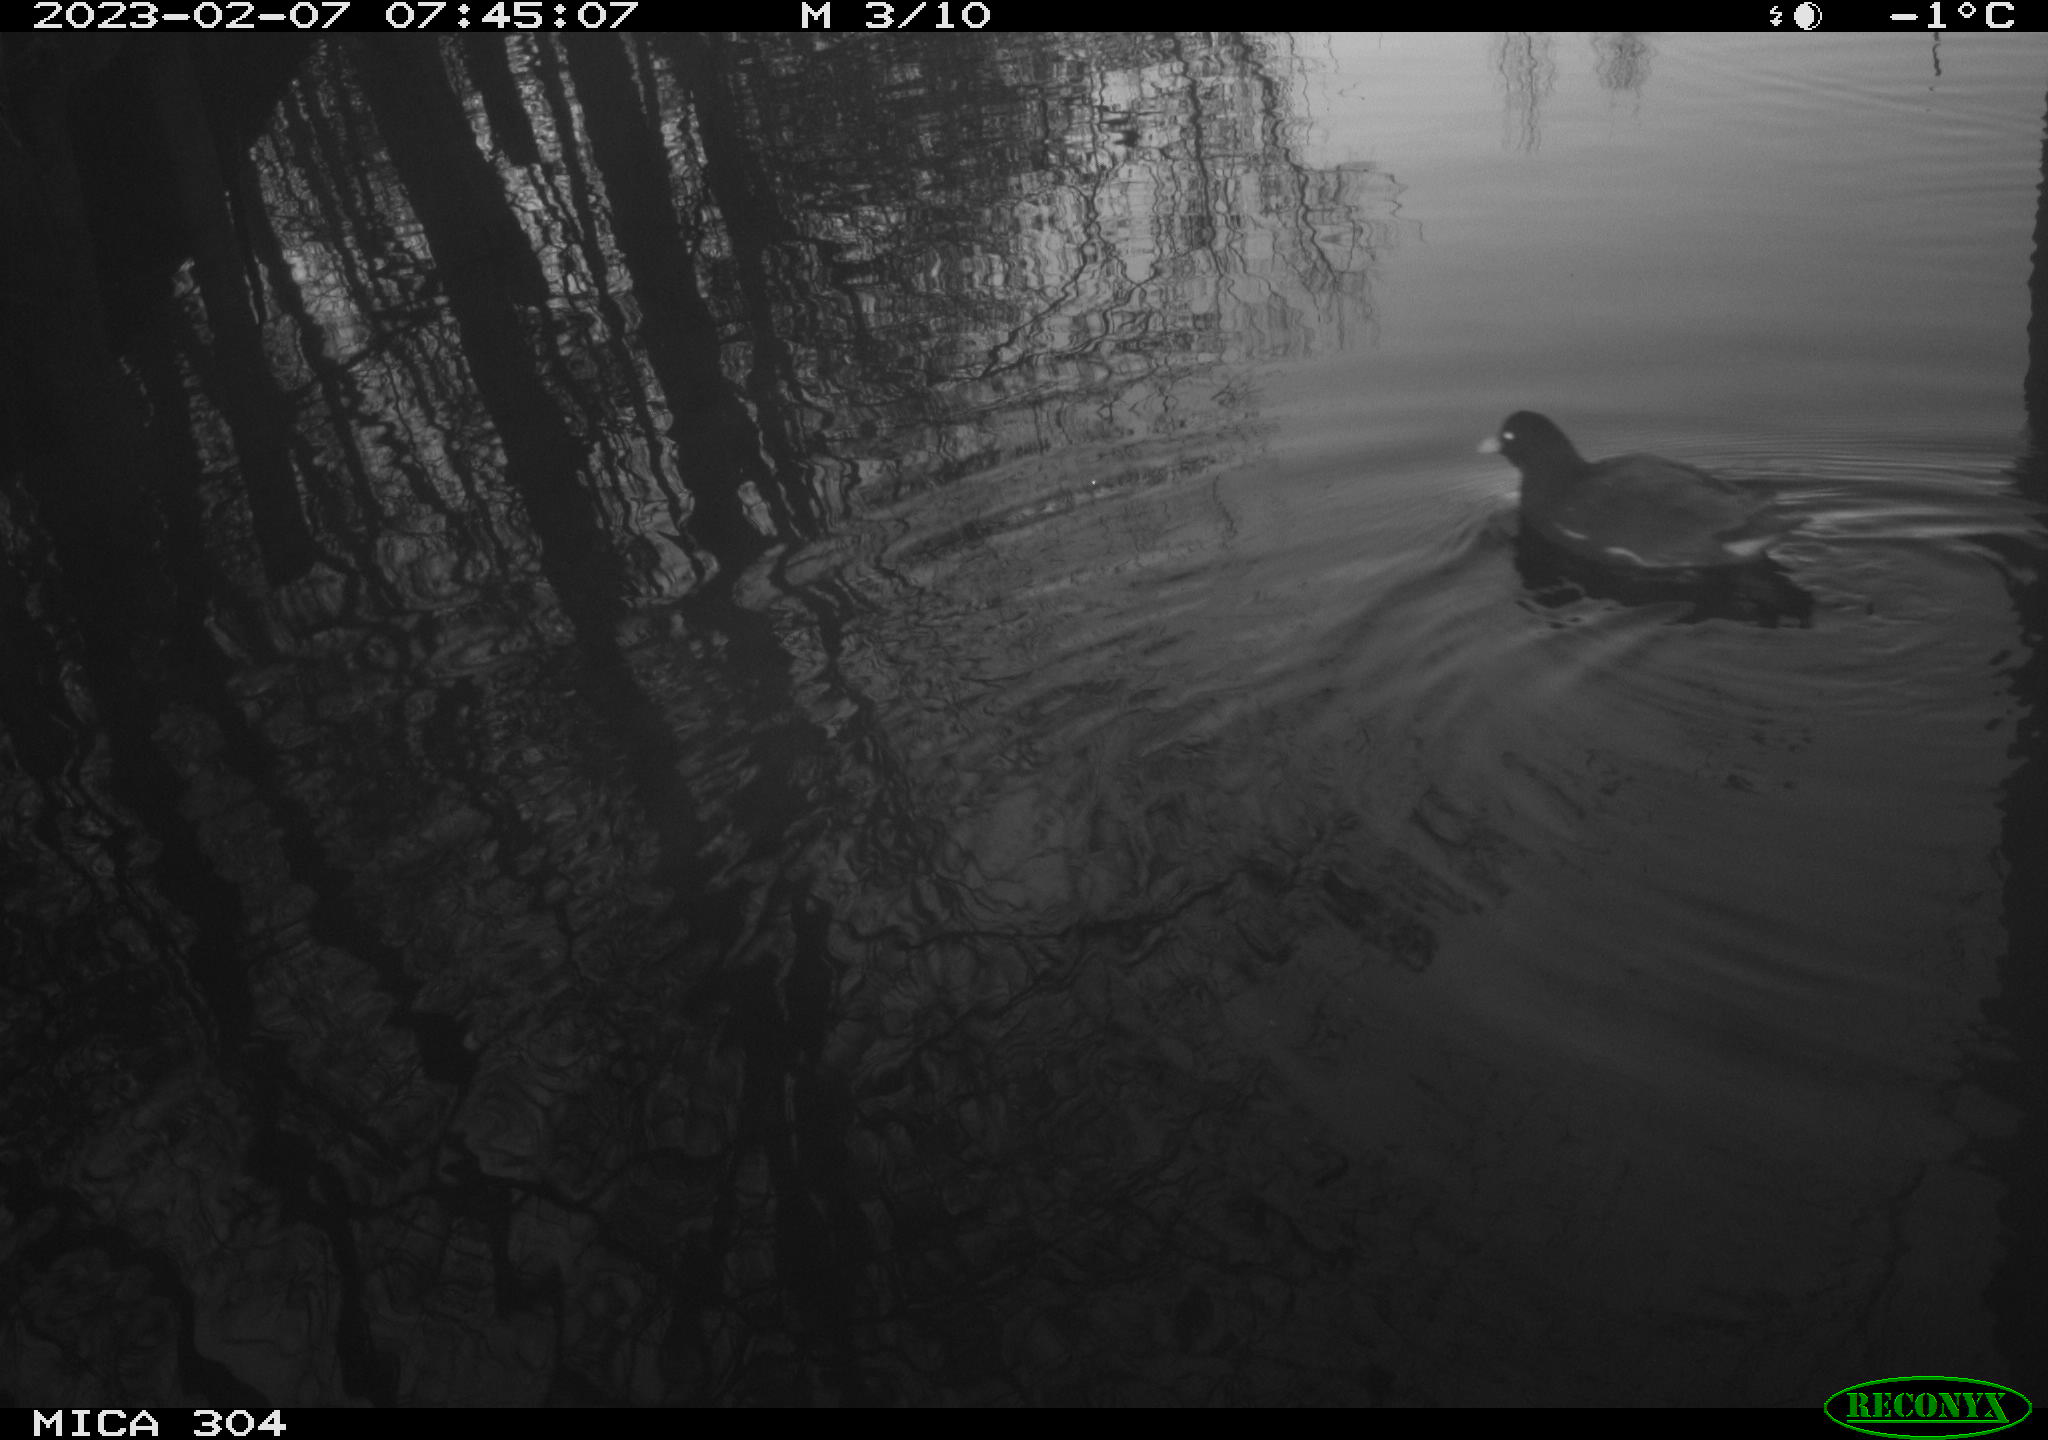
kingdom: Animalia
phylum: Chordata
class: Aves
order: Gruiformes
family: Rallidae
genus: Gallinula
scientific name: Gallinula chloropus
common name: Common moorhen
